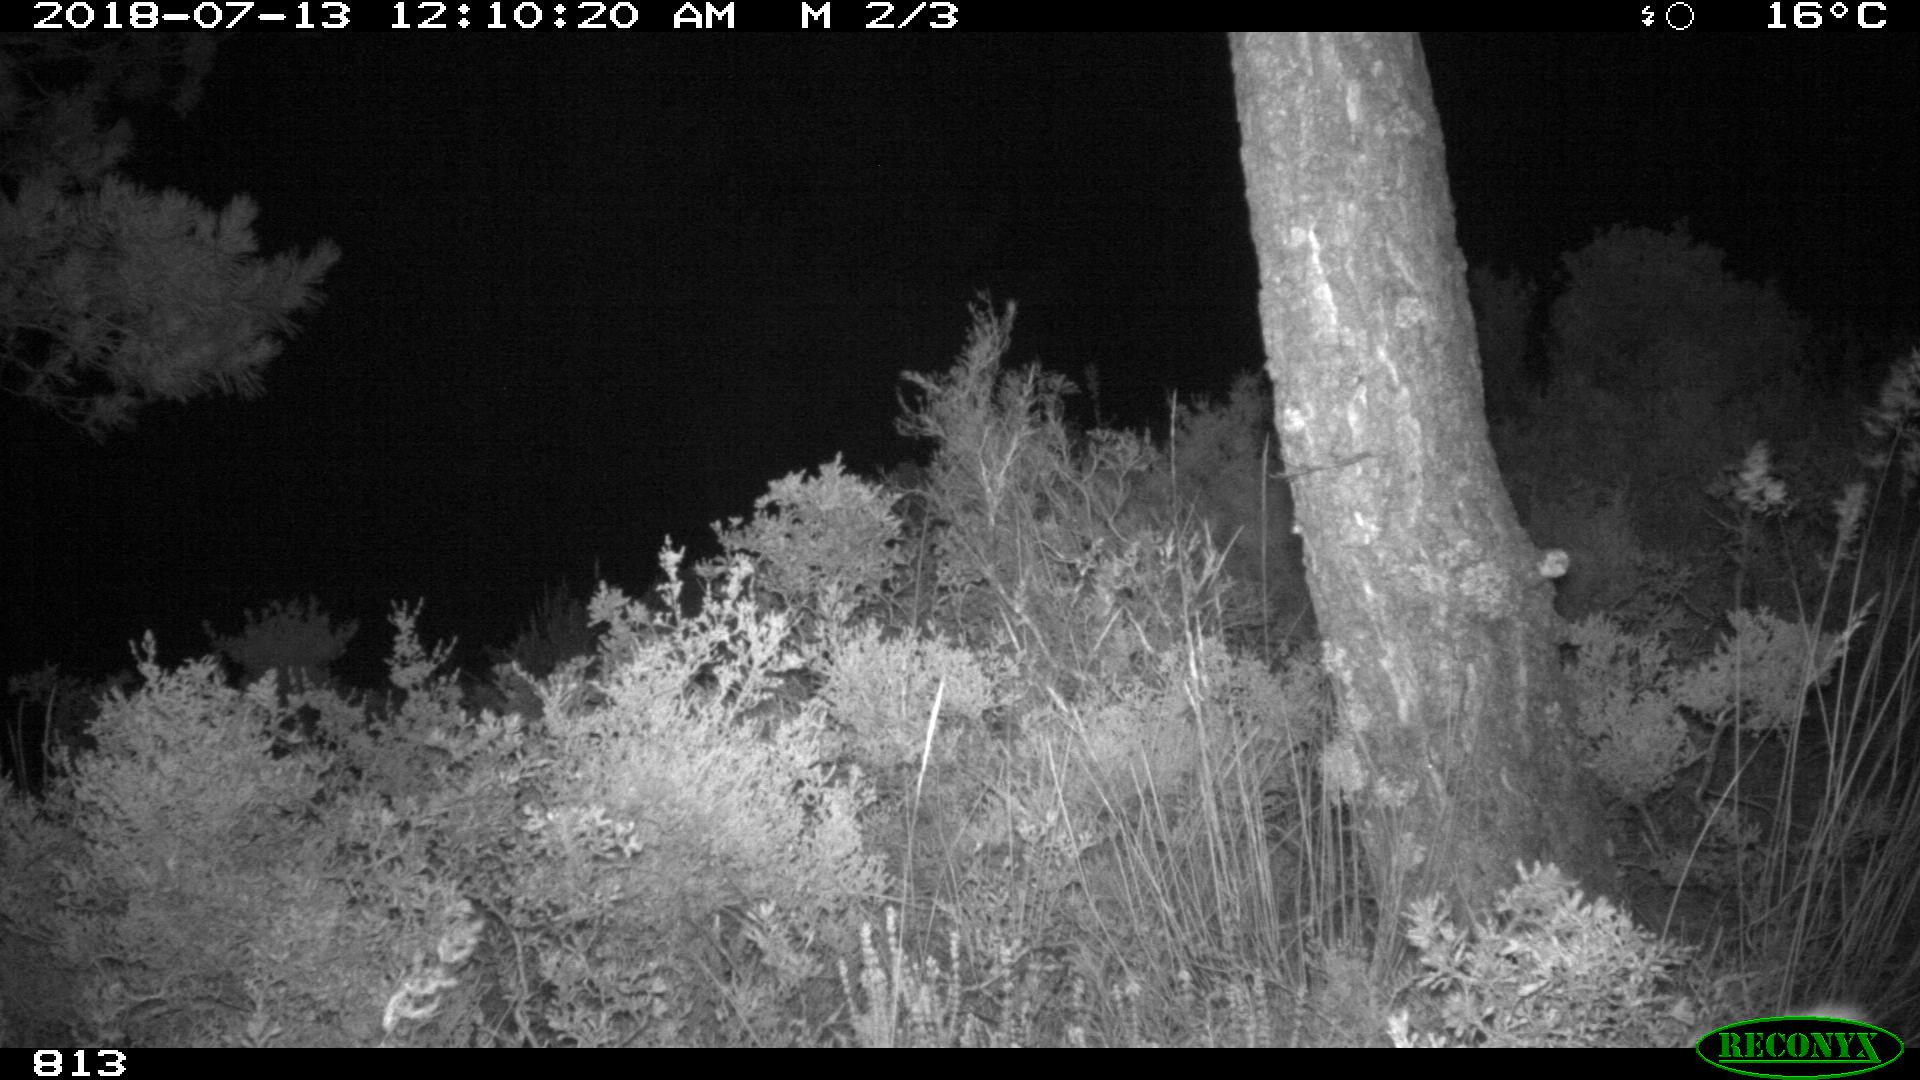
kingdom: Animalia
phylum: Chordata
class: Mammalia
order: Perissodactyla
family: Equidae
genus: Equus
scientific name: Equus caballus
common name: Horse
